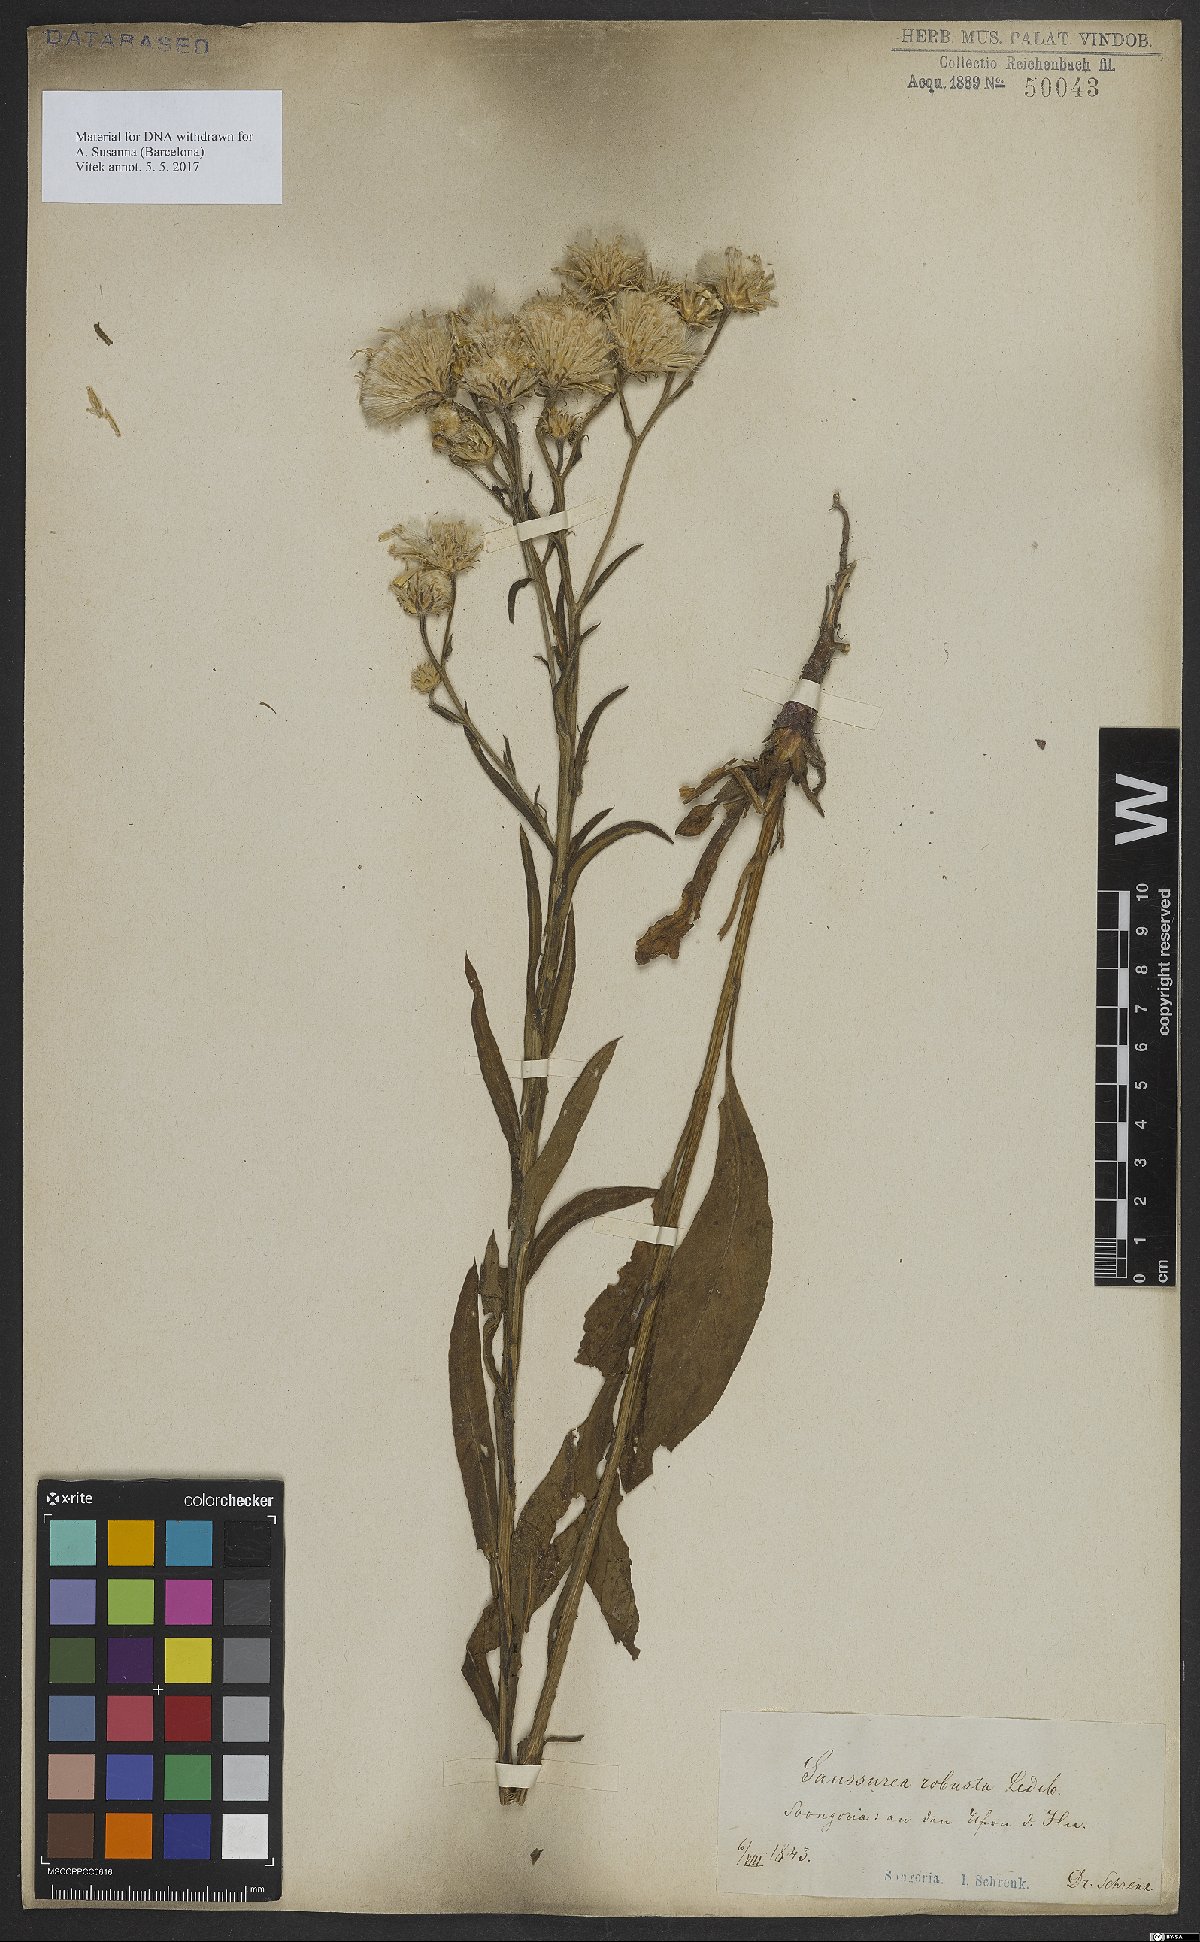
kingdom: Plantae
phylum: Tracheophyta
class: Magnoliopsida
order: Asterales
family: Asteraceae
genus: Saussurea
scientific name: Saussurea robusta
